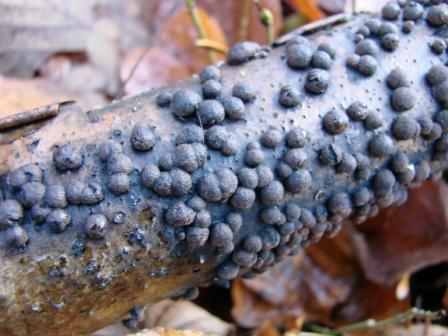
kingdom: Fungi
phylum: Ascomycota
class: Sordariomycetes
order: Xylariales
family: Hypoxylaceae
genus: Hypoxylon
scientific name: Hypoxylon howeanum
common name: halvkugleformet kulbær
